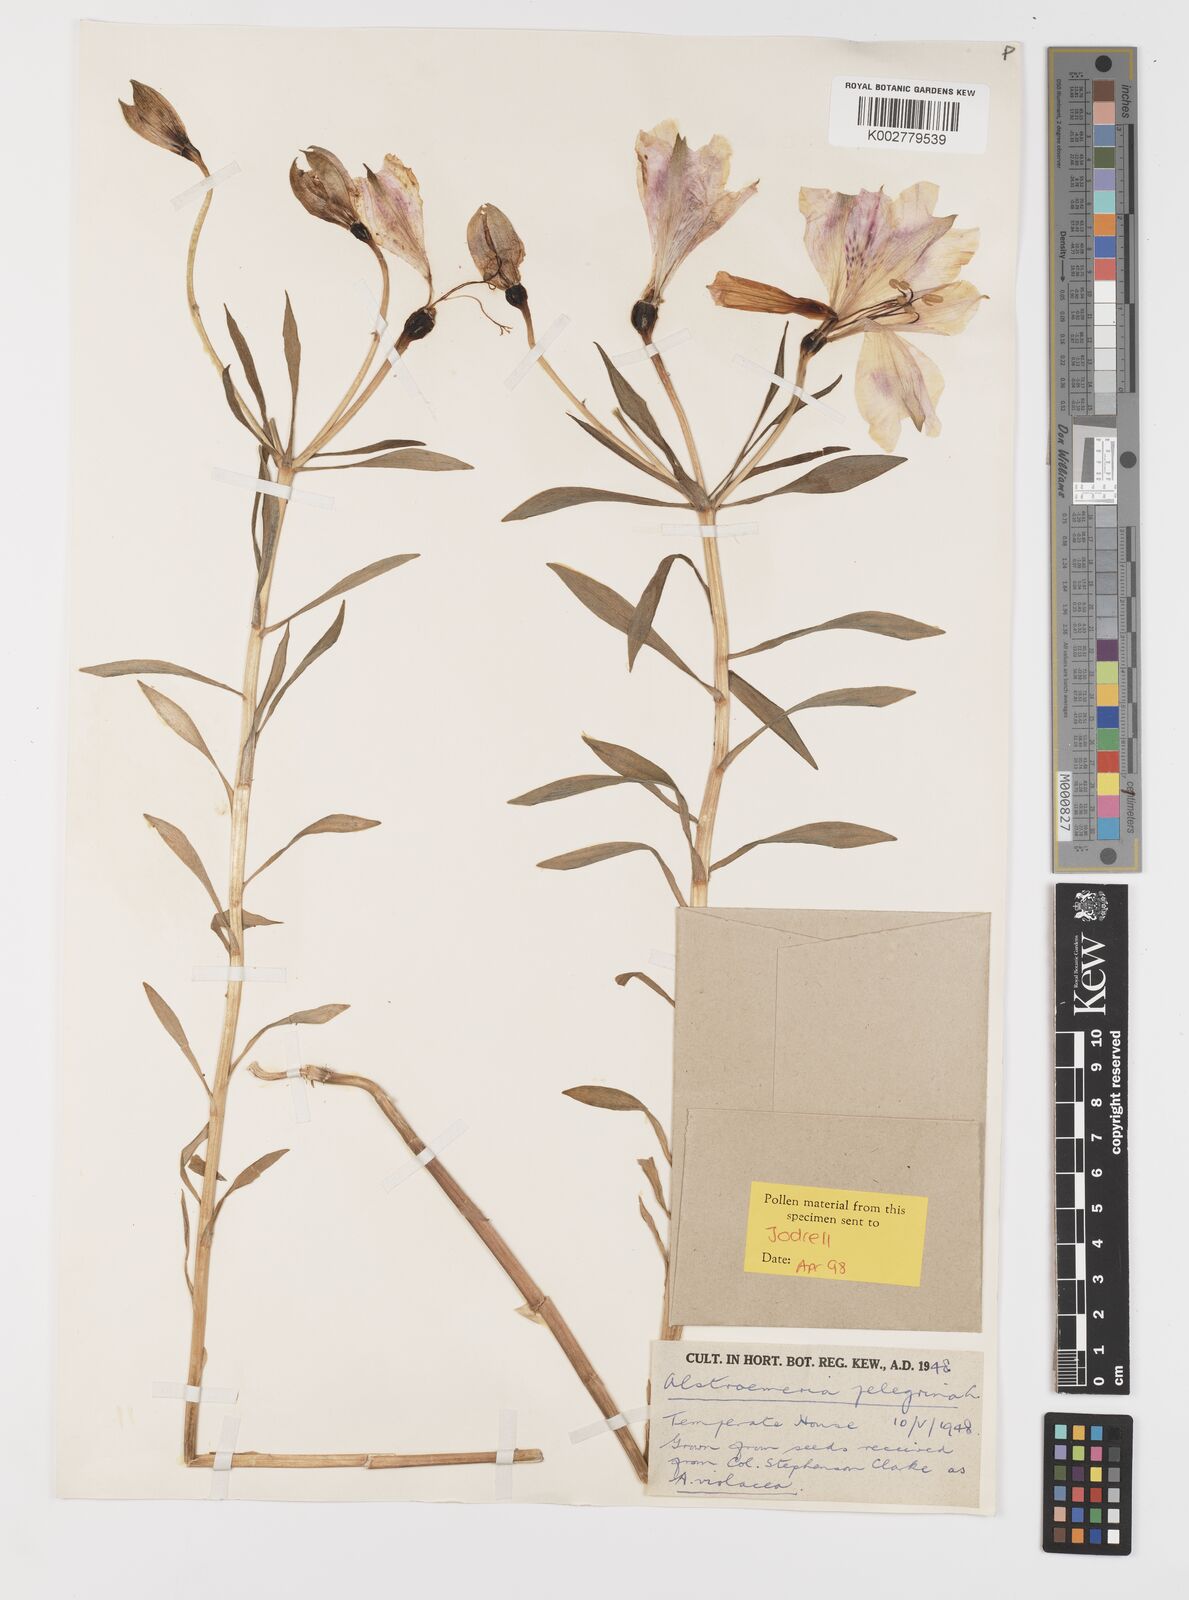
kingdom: Plantae
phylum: Tracheophyta
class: Liliopsida
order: Liliales
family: Alstroemeriaceae
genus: Alstroemeria
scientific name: Alstroemeria paupercula
